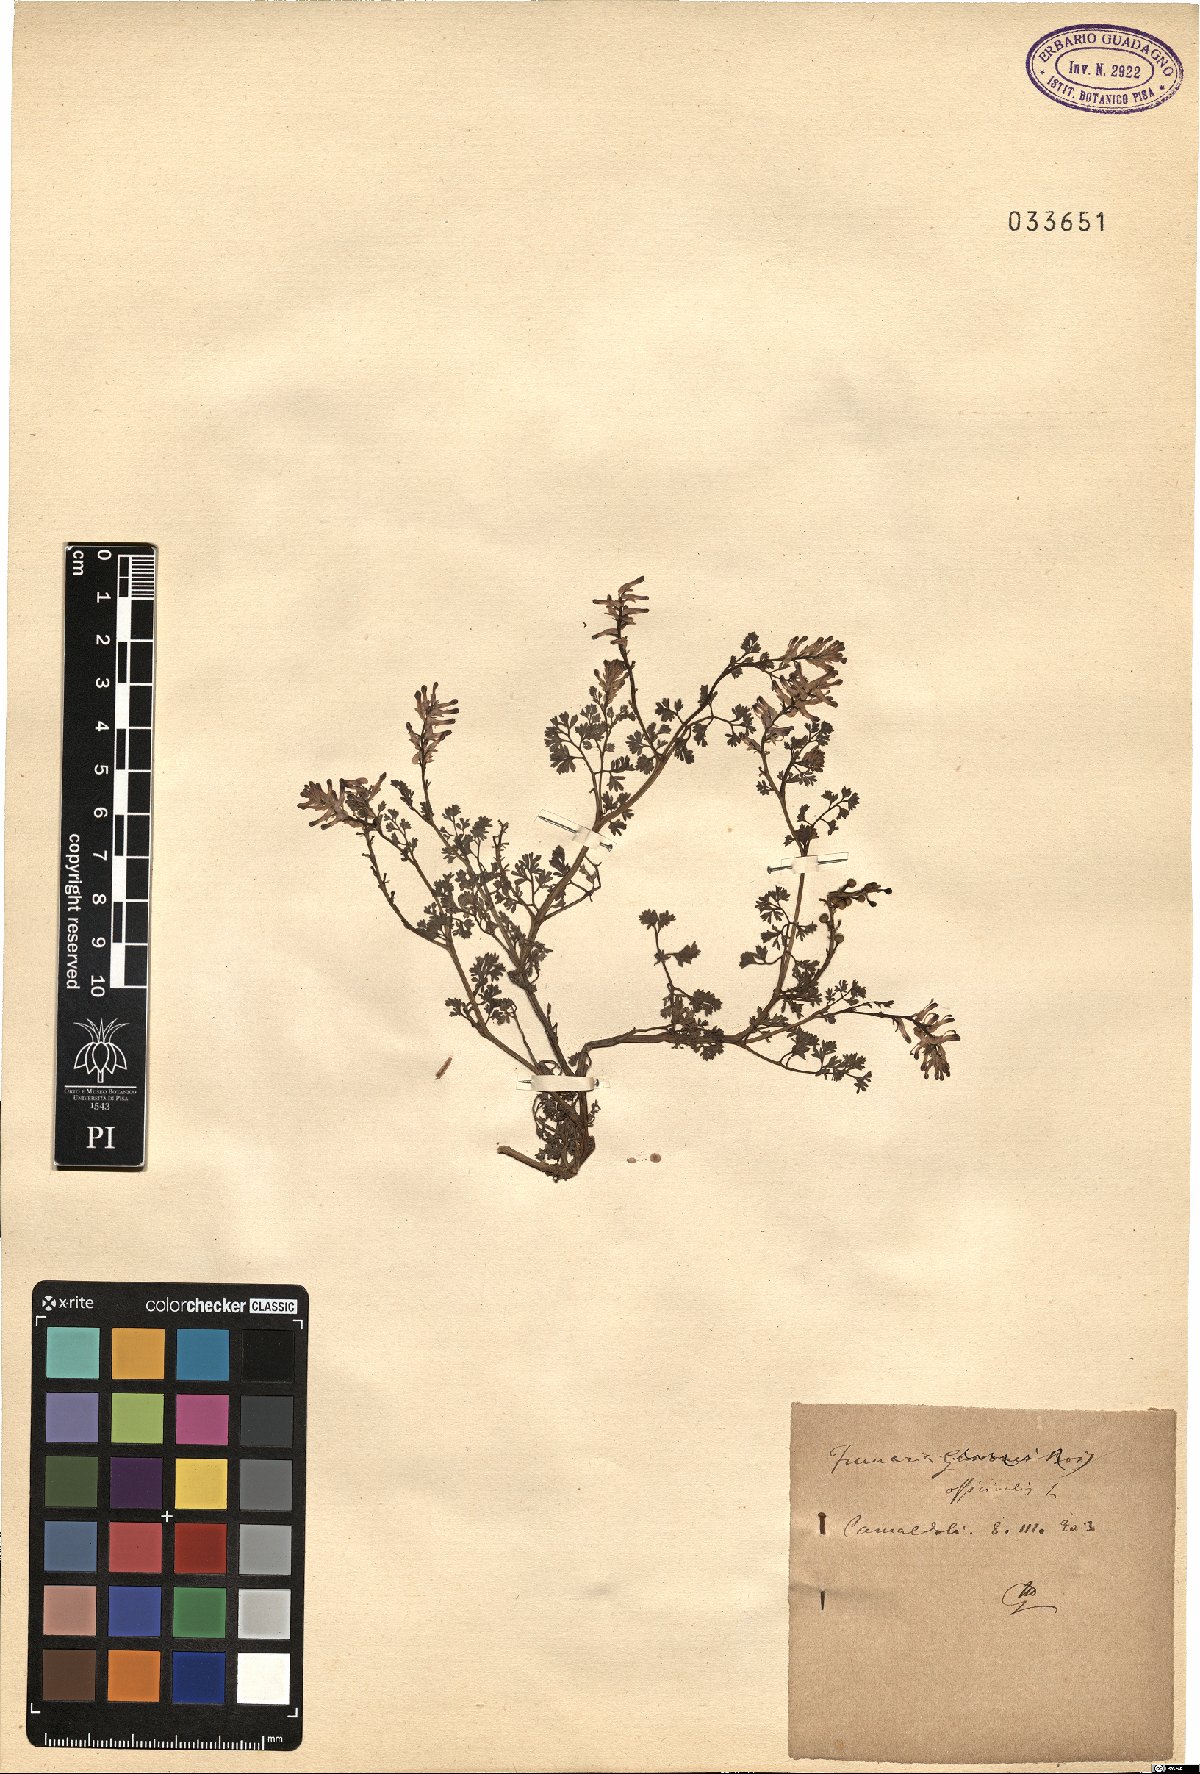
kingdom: Plantae
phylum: Tracheophyta
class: Magnoliopsida
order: Ranunculales
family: Papaveraceae
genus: Fumaria
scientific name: Fumaria officinalis
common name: Common fumitory
